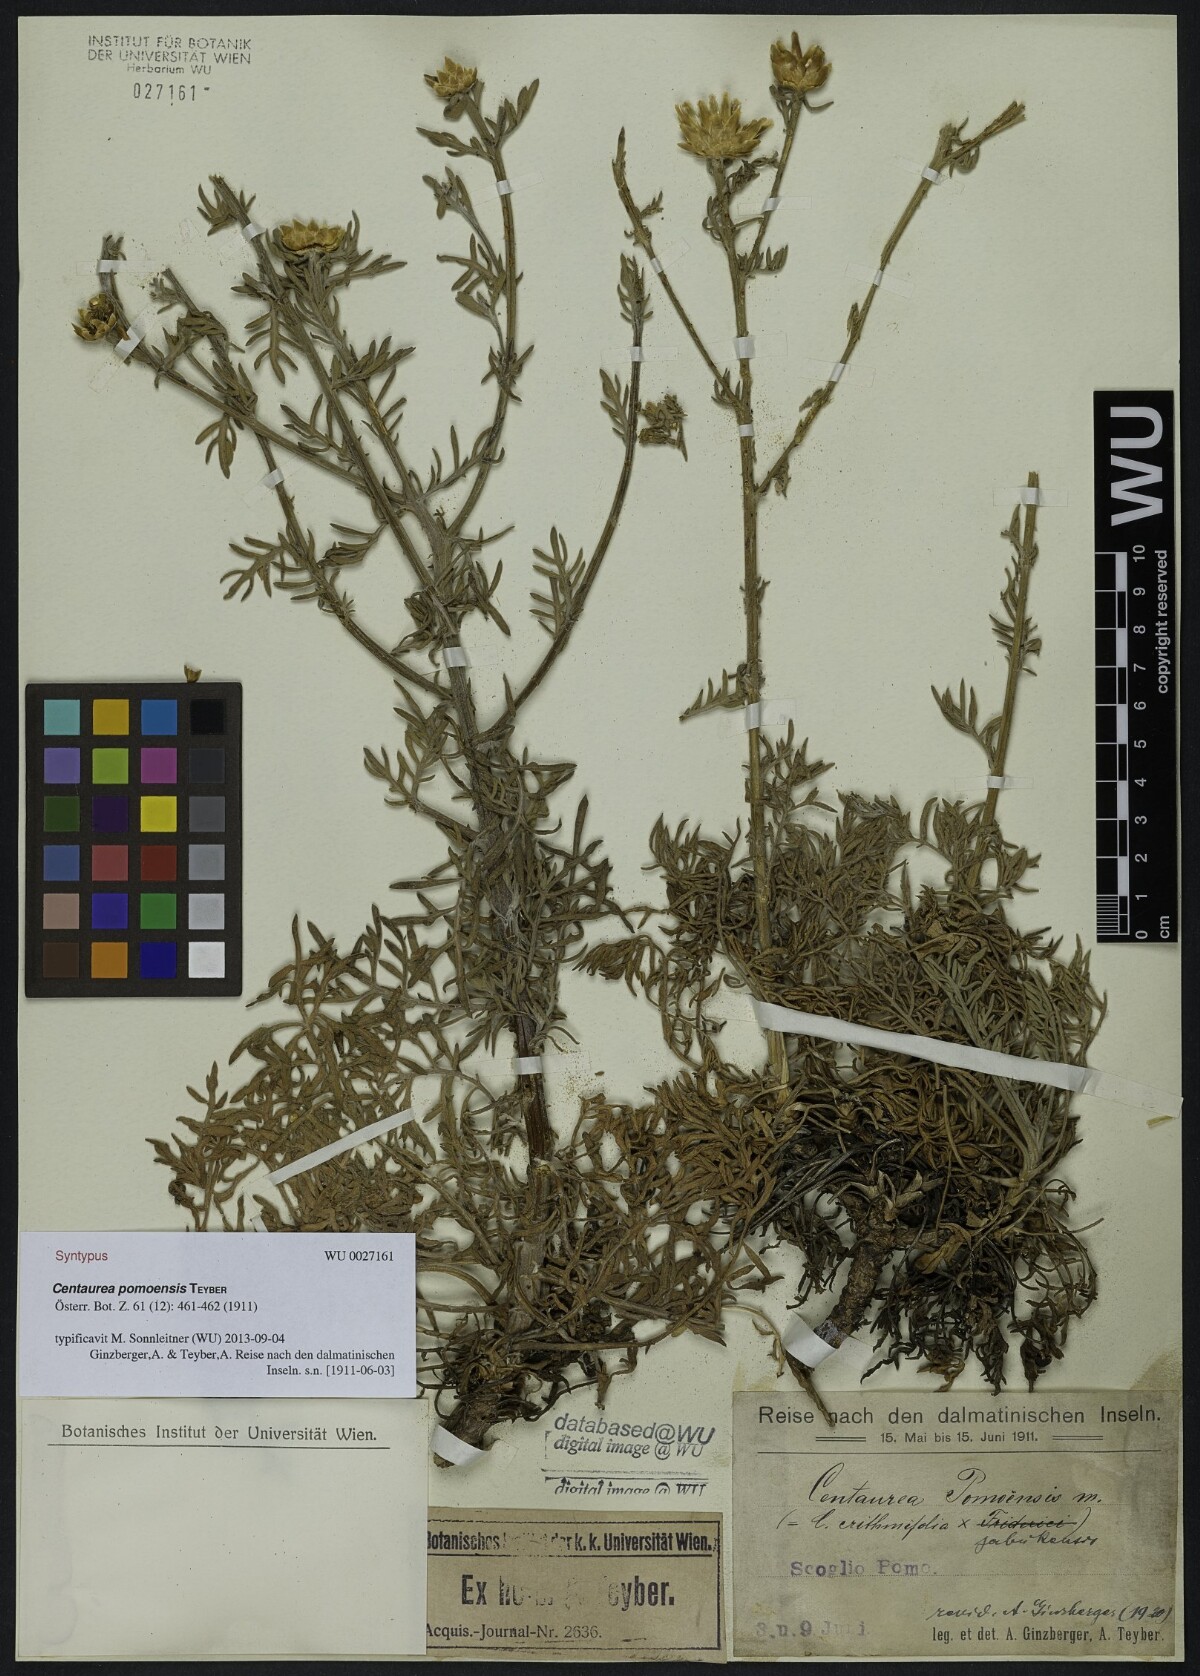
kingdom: Plantae
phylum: Tracheophyta
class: Magnoliopsida
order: Asterales
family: Asteraceae
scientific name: Asteraceae
